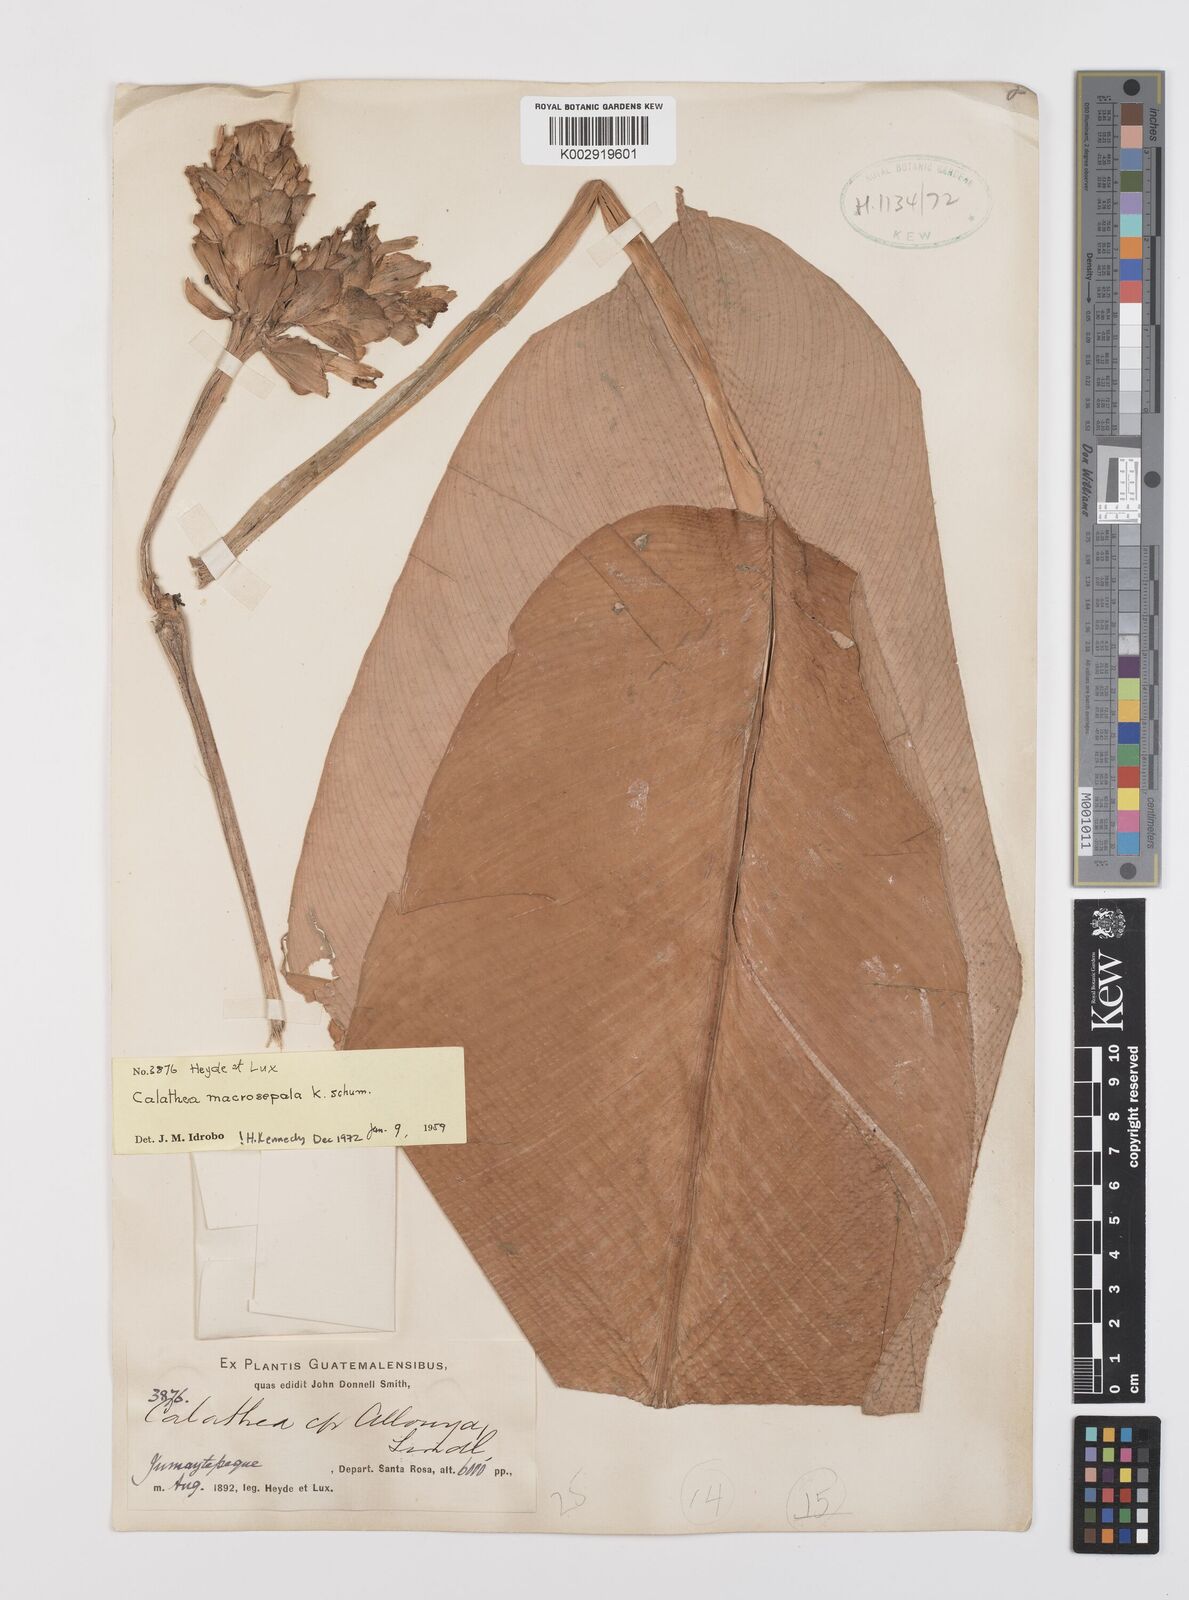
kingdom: Plantae
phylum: Tracheophyta
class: Liliopsida
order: Zingiberales
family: Marantaceae
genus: Goeppertia
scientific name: Goeppertia macrosepala
